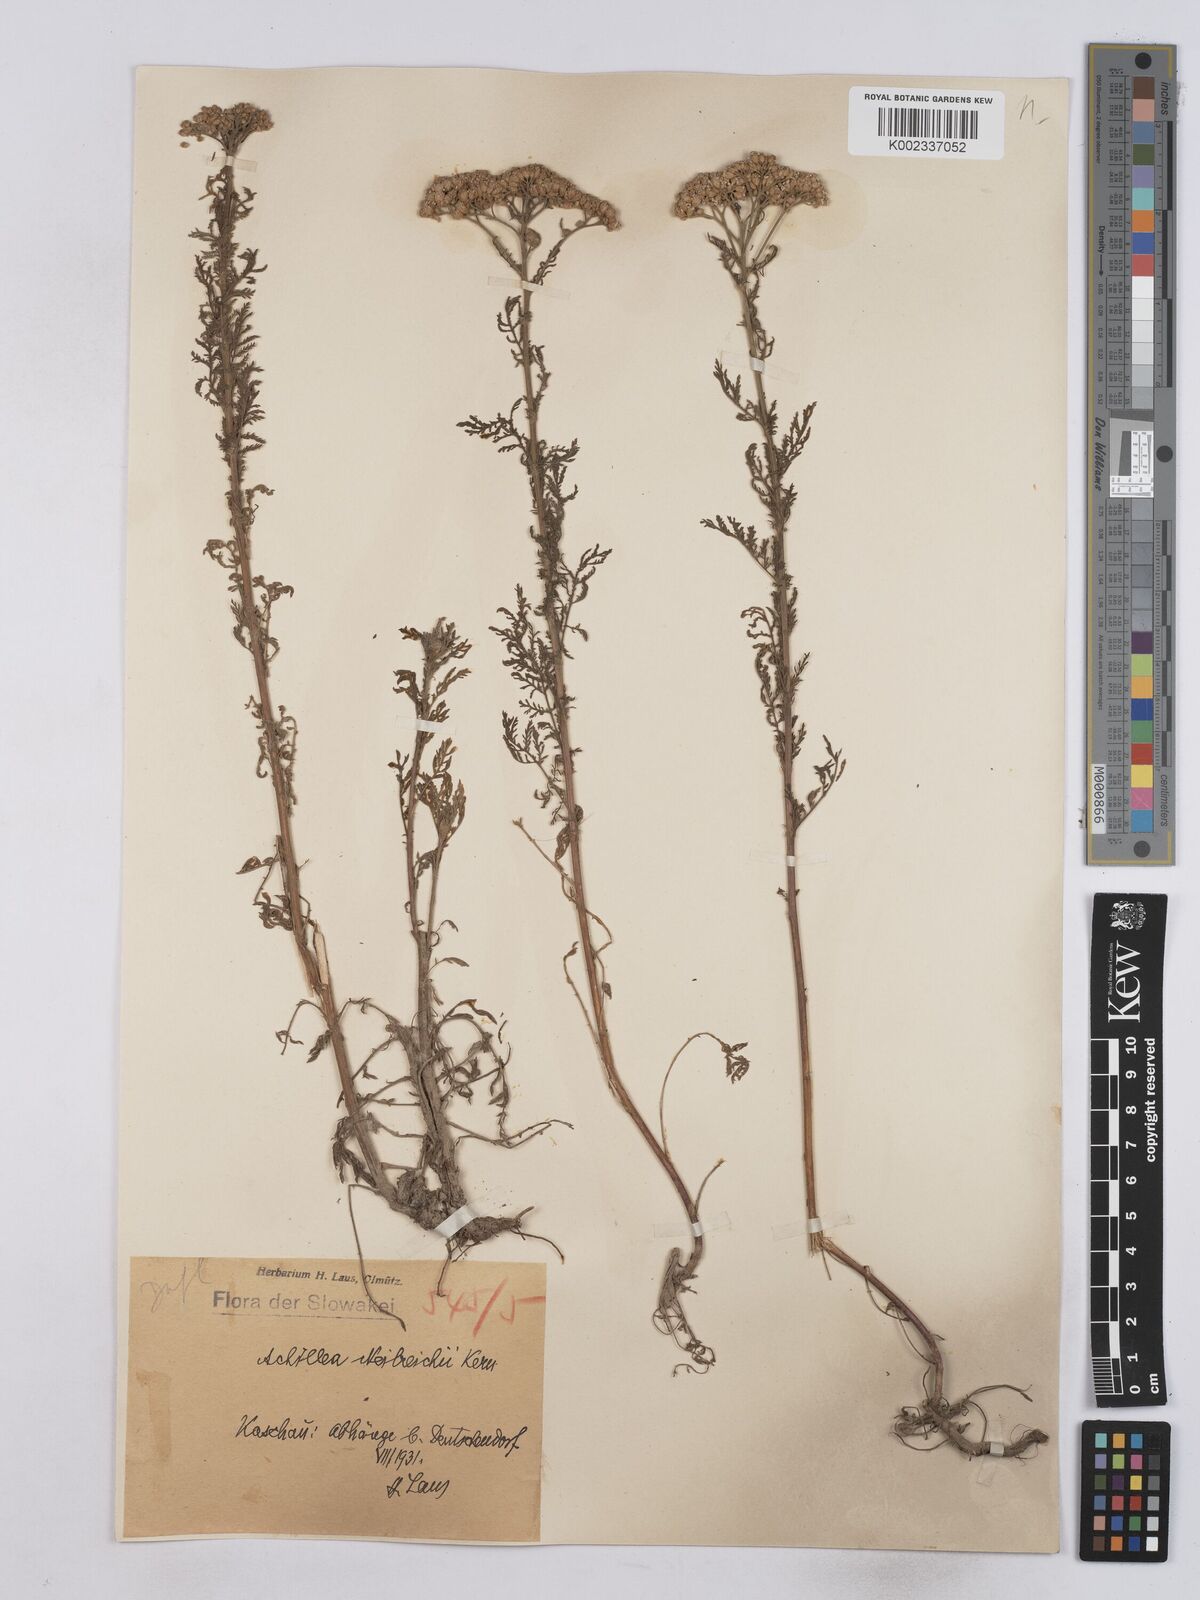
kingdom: Plantae
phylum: Tracheophyta
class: Magnoliopsida
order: Asterales
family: Asteraceae
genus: Achillea
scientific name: Achillea nobilis
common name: Noble yarrow
